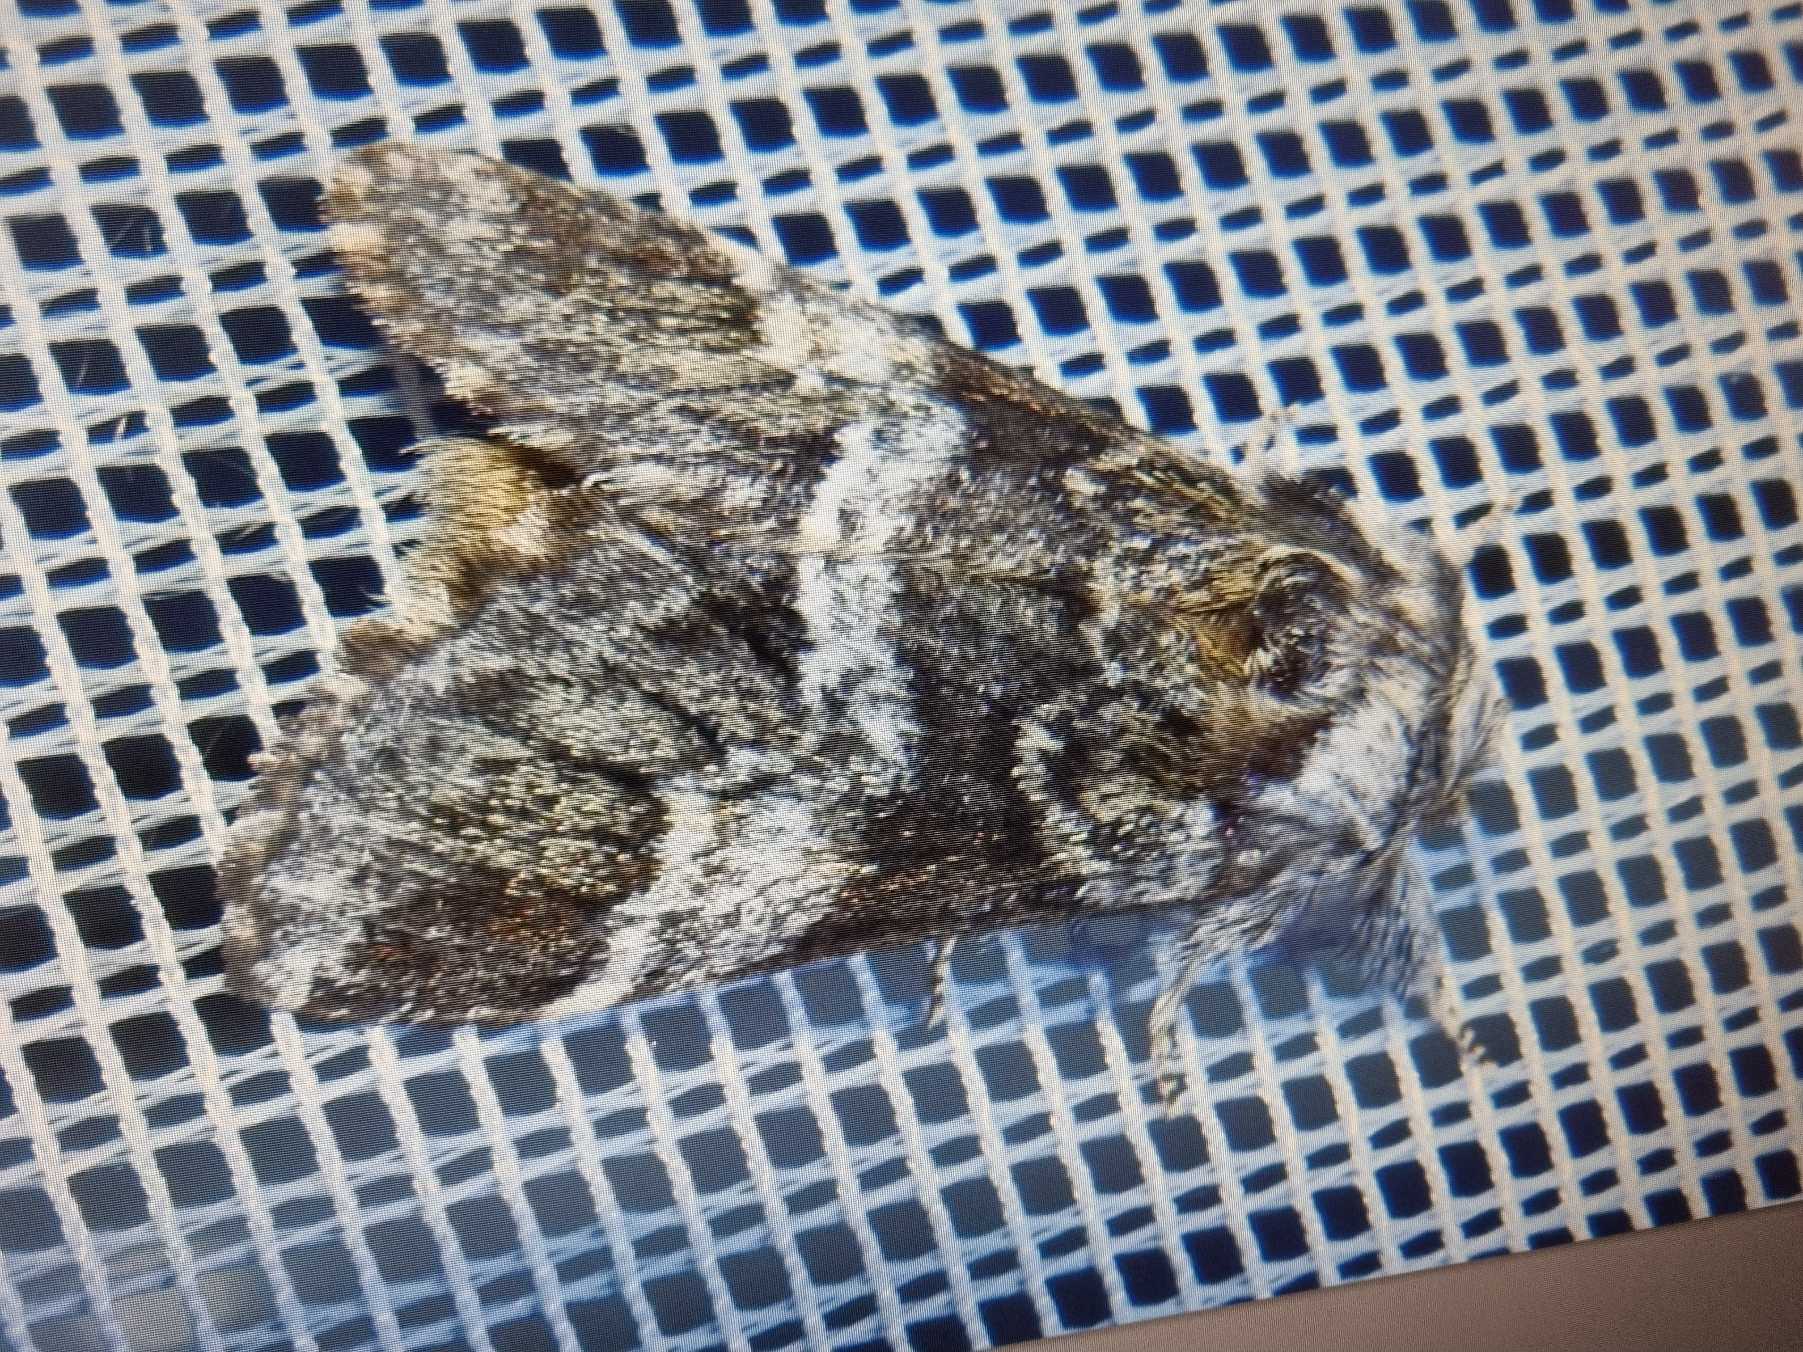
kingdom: Animalia
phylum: Arthropoda
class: Insecta
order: Lepidoptera
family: Notodontidae
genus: Drymonia
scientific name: Drymonia dodonaea
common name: Junispinder
